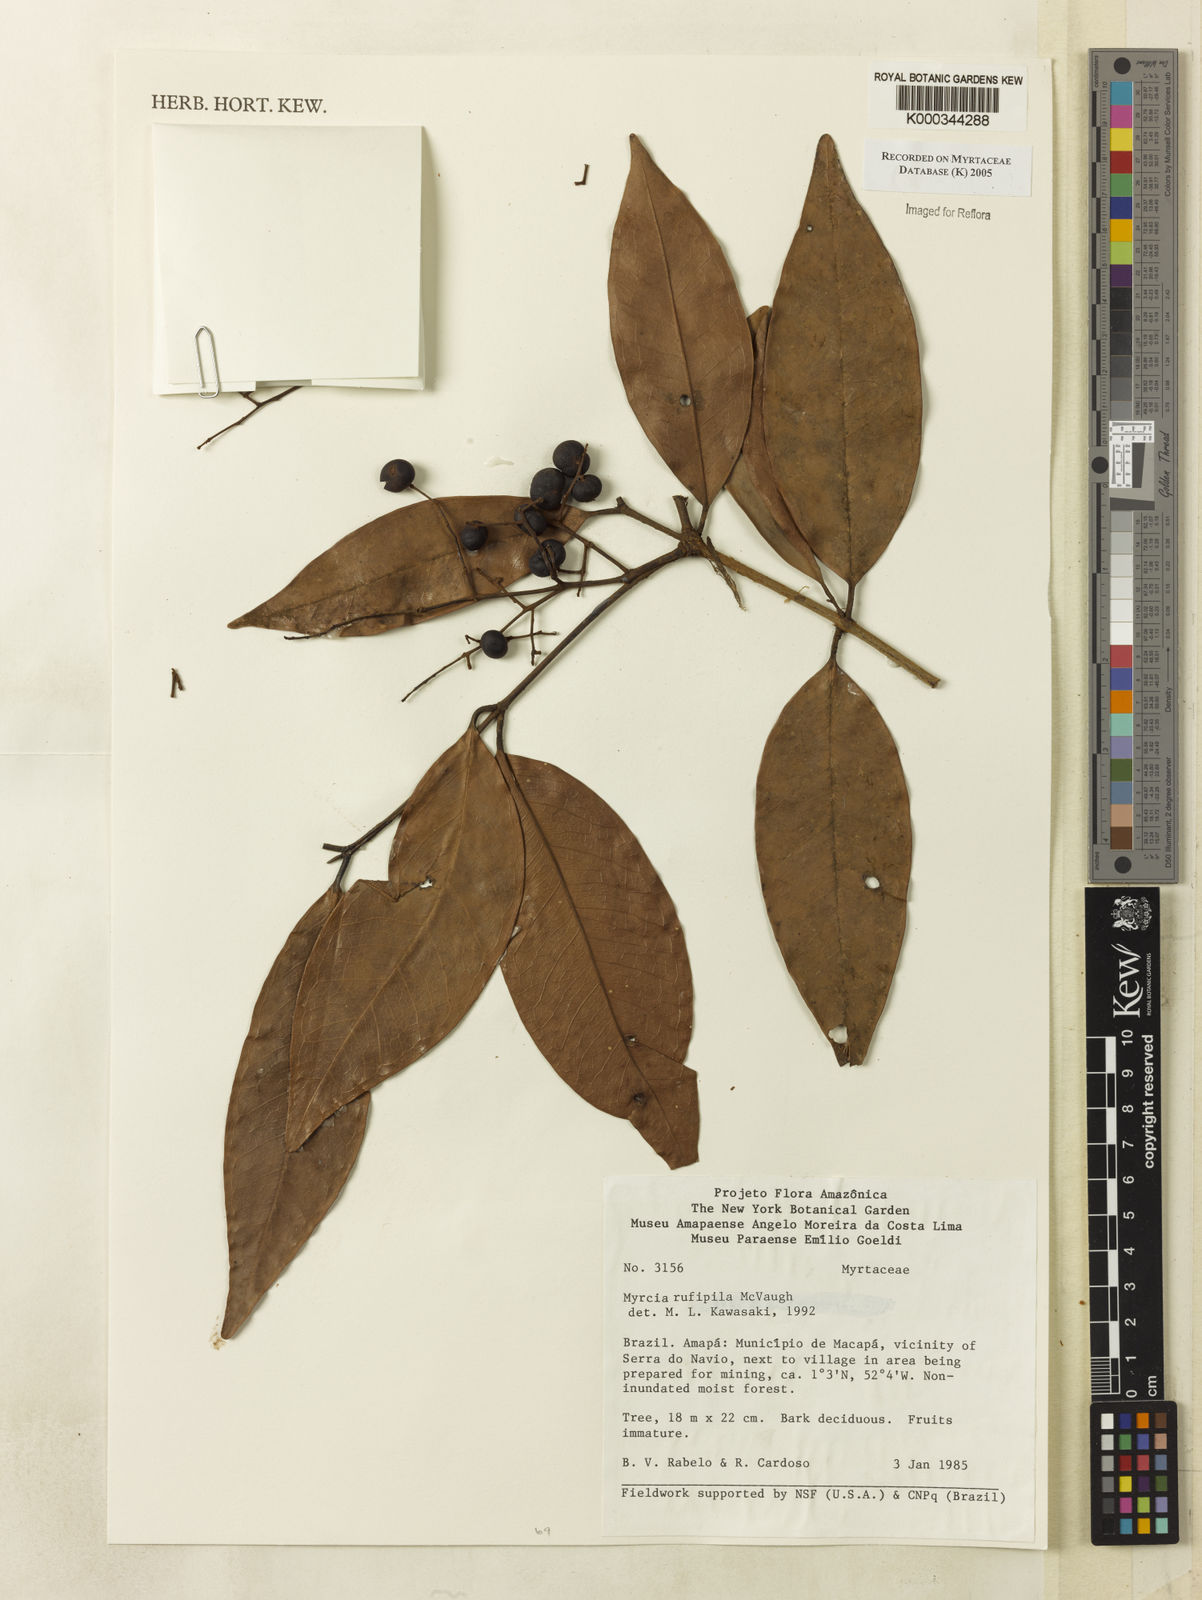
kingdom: Plantae
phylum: Tracheophyta
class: Magnoliopsida
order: Myrtales
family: Myrtaceae
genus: Myrcia
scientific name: Myrcia rufipila
